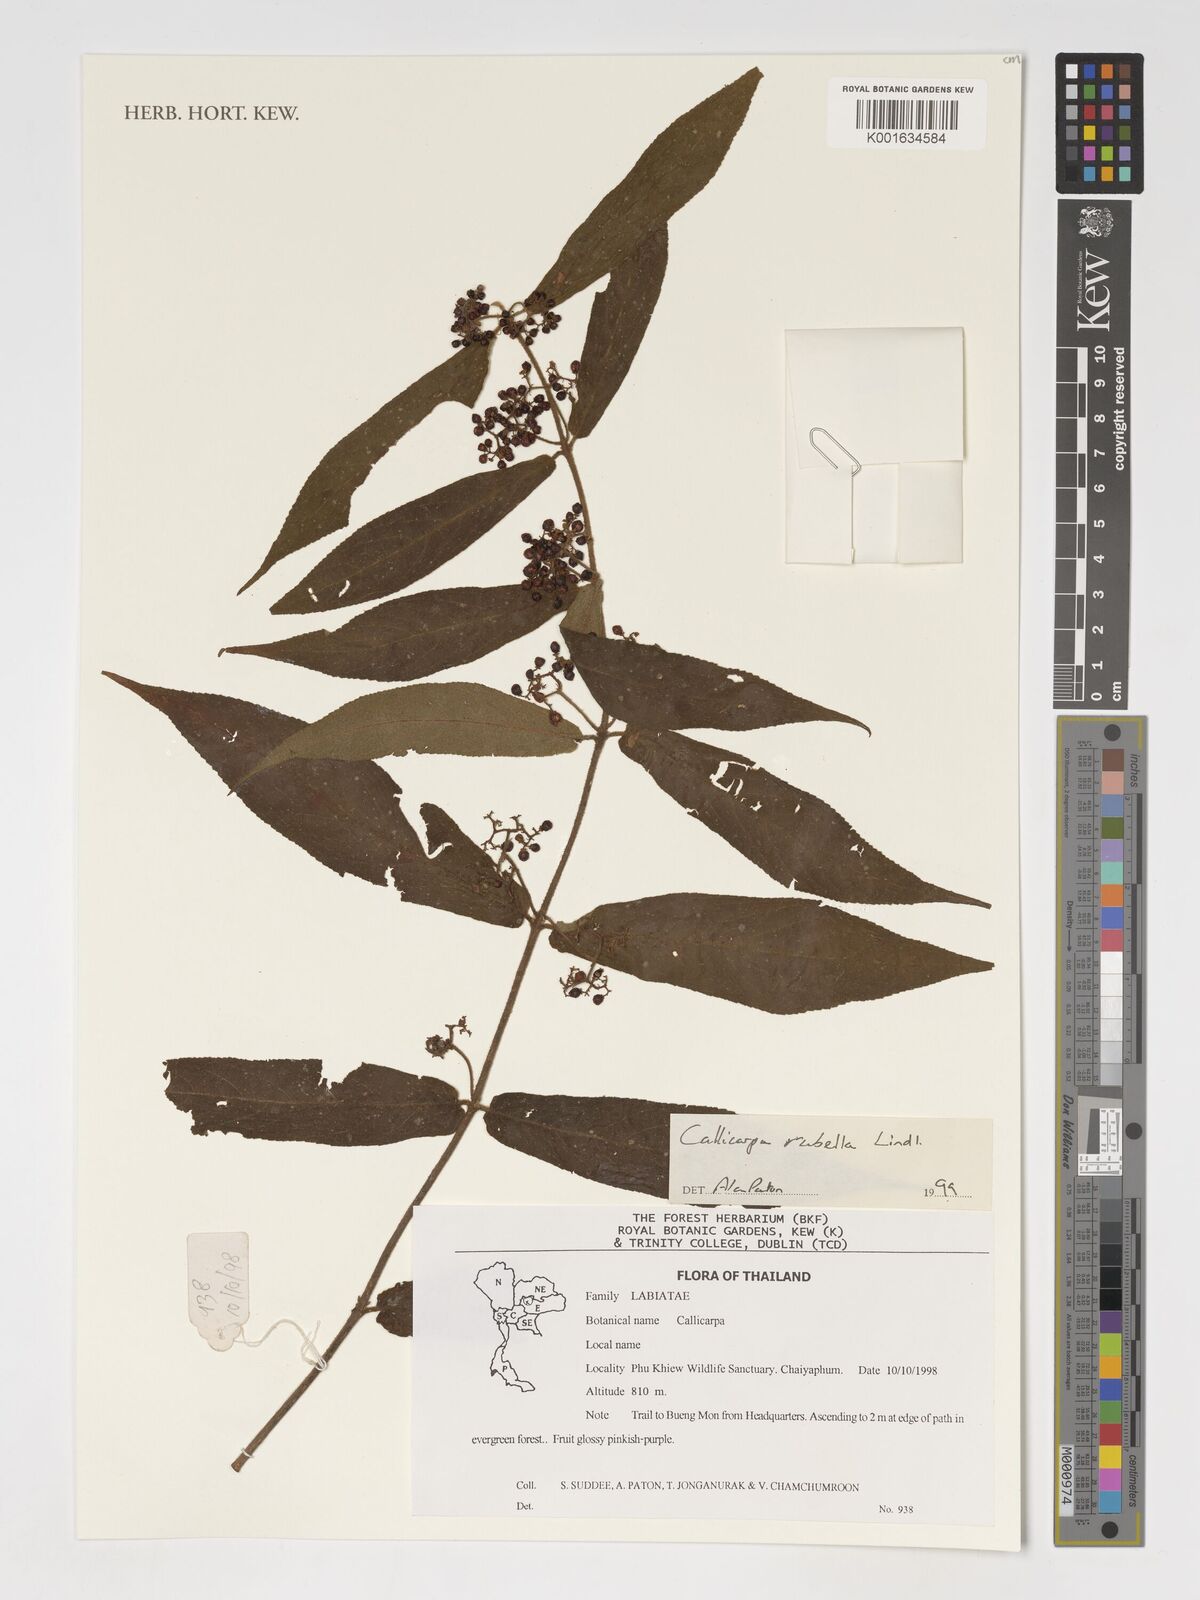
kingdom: Plantae
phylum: Tracheophyta
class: Magnoliopsida
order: Lamiales
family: Lamiaceae
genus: Callicarpa
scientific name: Callicarpa rubella
